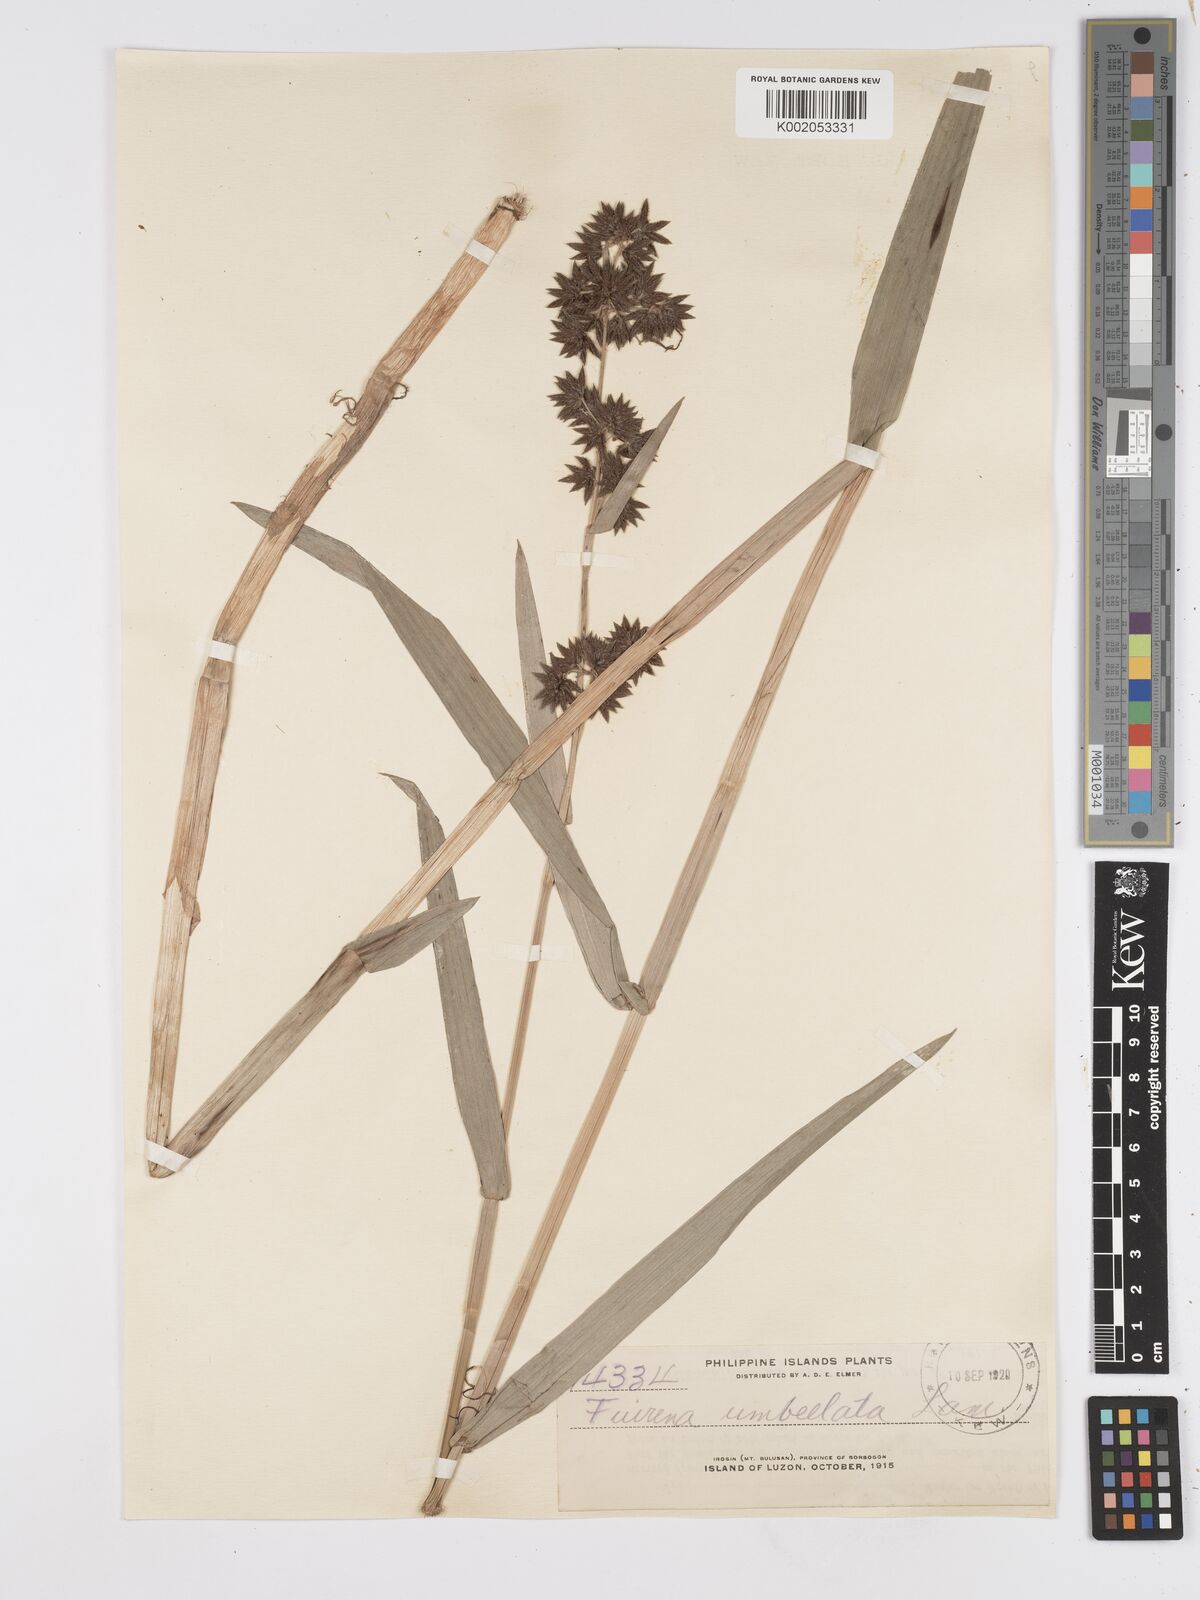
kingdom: Plantae
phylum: Tracheophyta
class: Liliopsida
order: Poales
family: Cyperaceae
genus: Fuirena
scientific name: Fuirena umbellata
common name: Yefen
